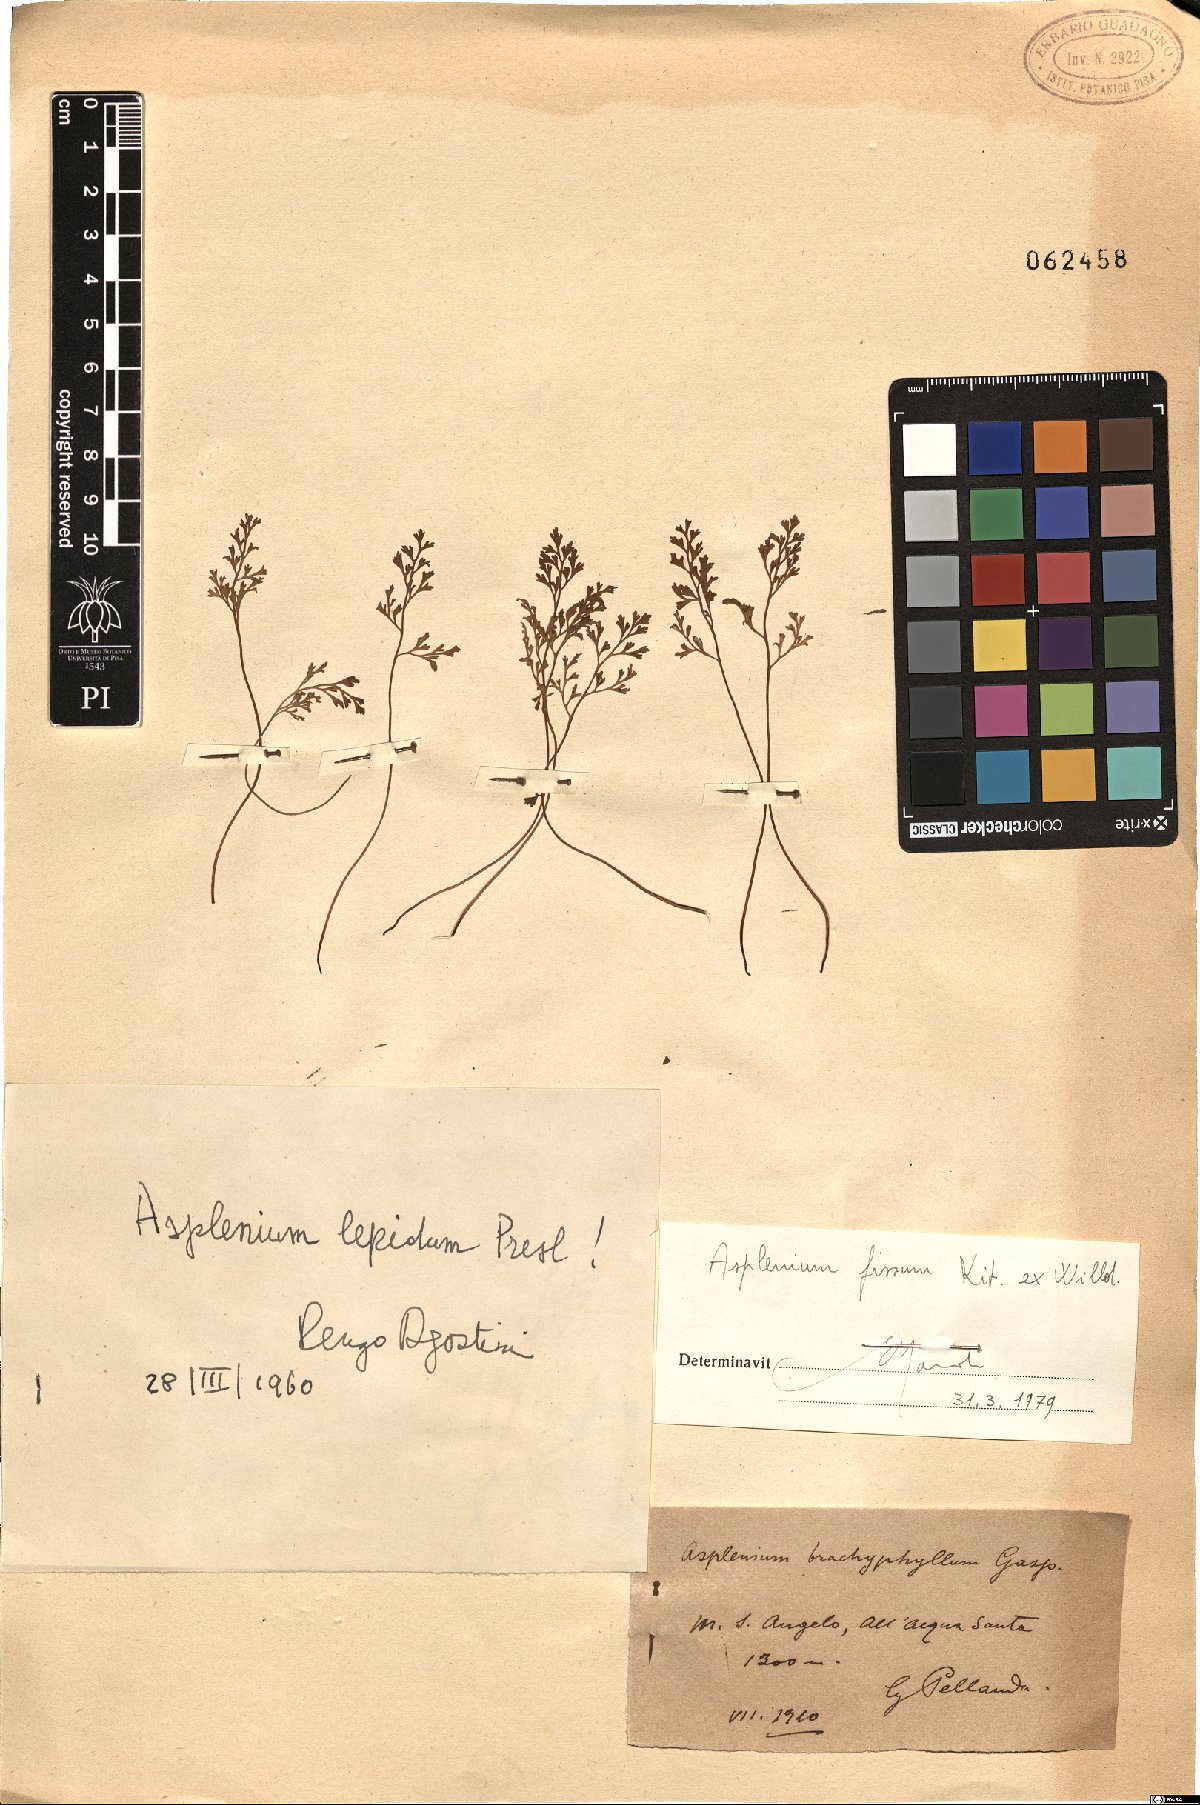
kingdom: Plantae
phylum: Tracheophyta
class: Polypodiopsida
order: Polypodiales
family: Aspleniaceae
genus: Asplenium
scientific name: Asplenium fissum
